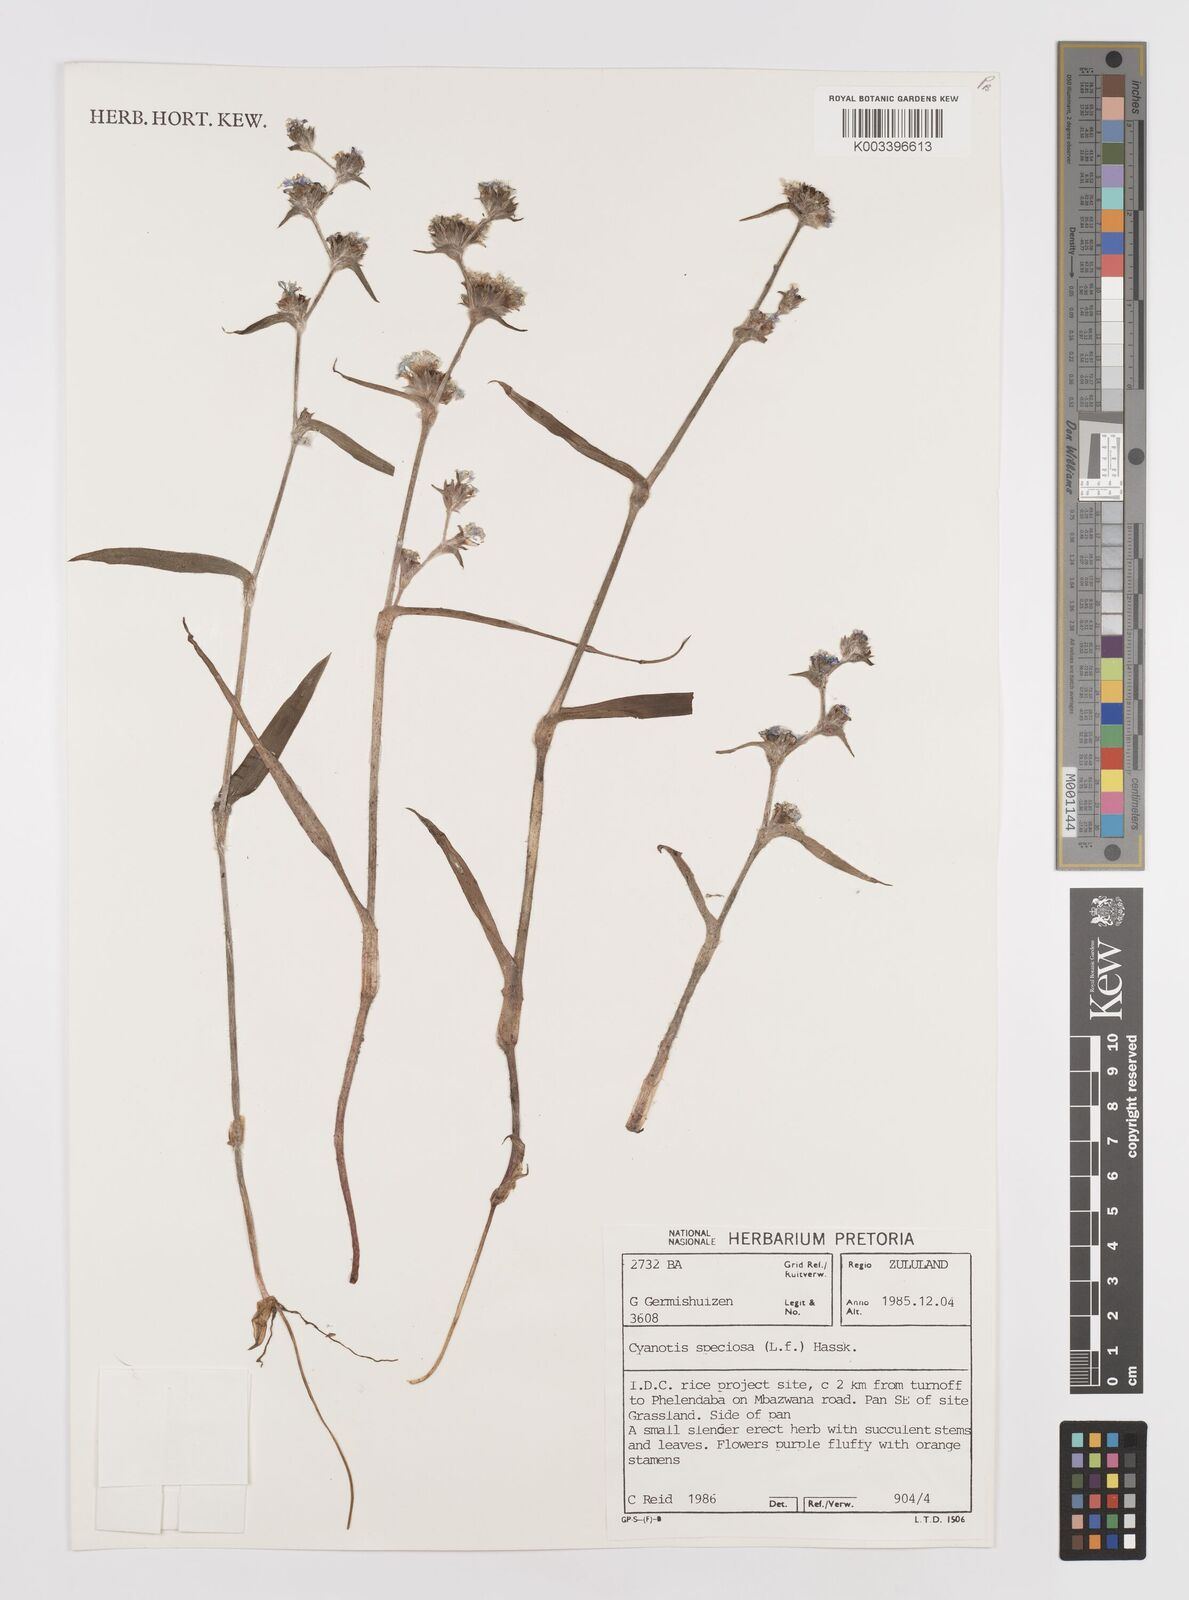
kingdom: Plantae
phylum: Tracheophyta
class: Liliopsida
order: Commelinales
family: Commelinaceae
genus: Cyanotis
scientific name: Cyanotis speciosa
